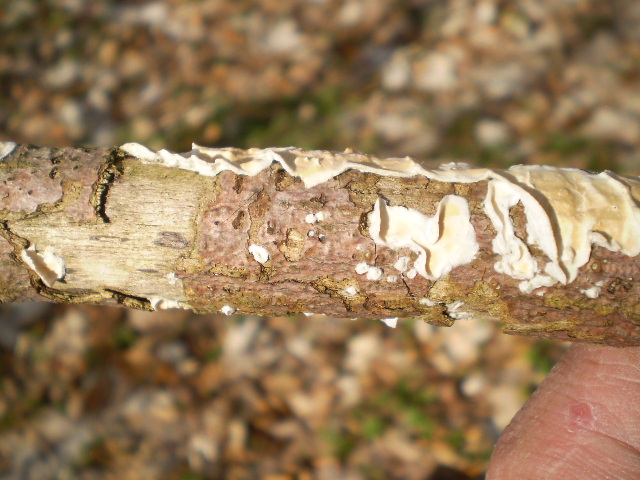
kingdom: Fungi
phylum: Basidiomycota
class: Agaricomycetes
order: Polyporales
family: Irpicaceae
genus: Byssomerulius
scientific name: Byssomerulius corium
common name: læder-åresvamp
